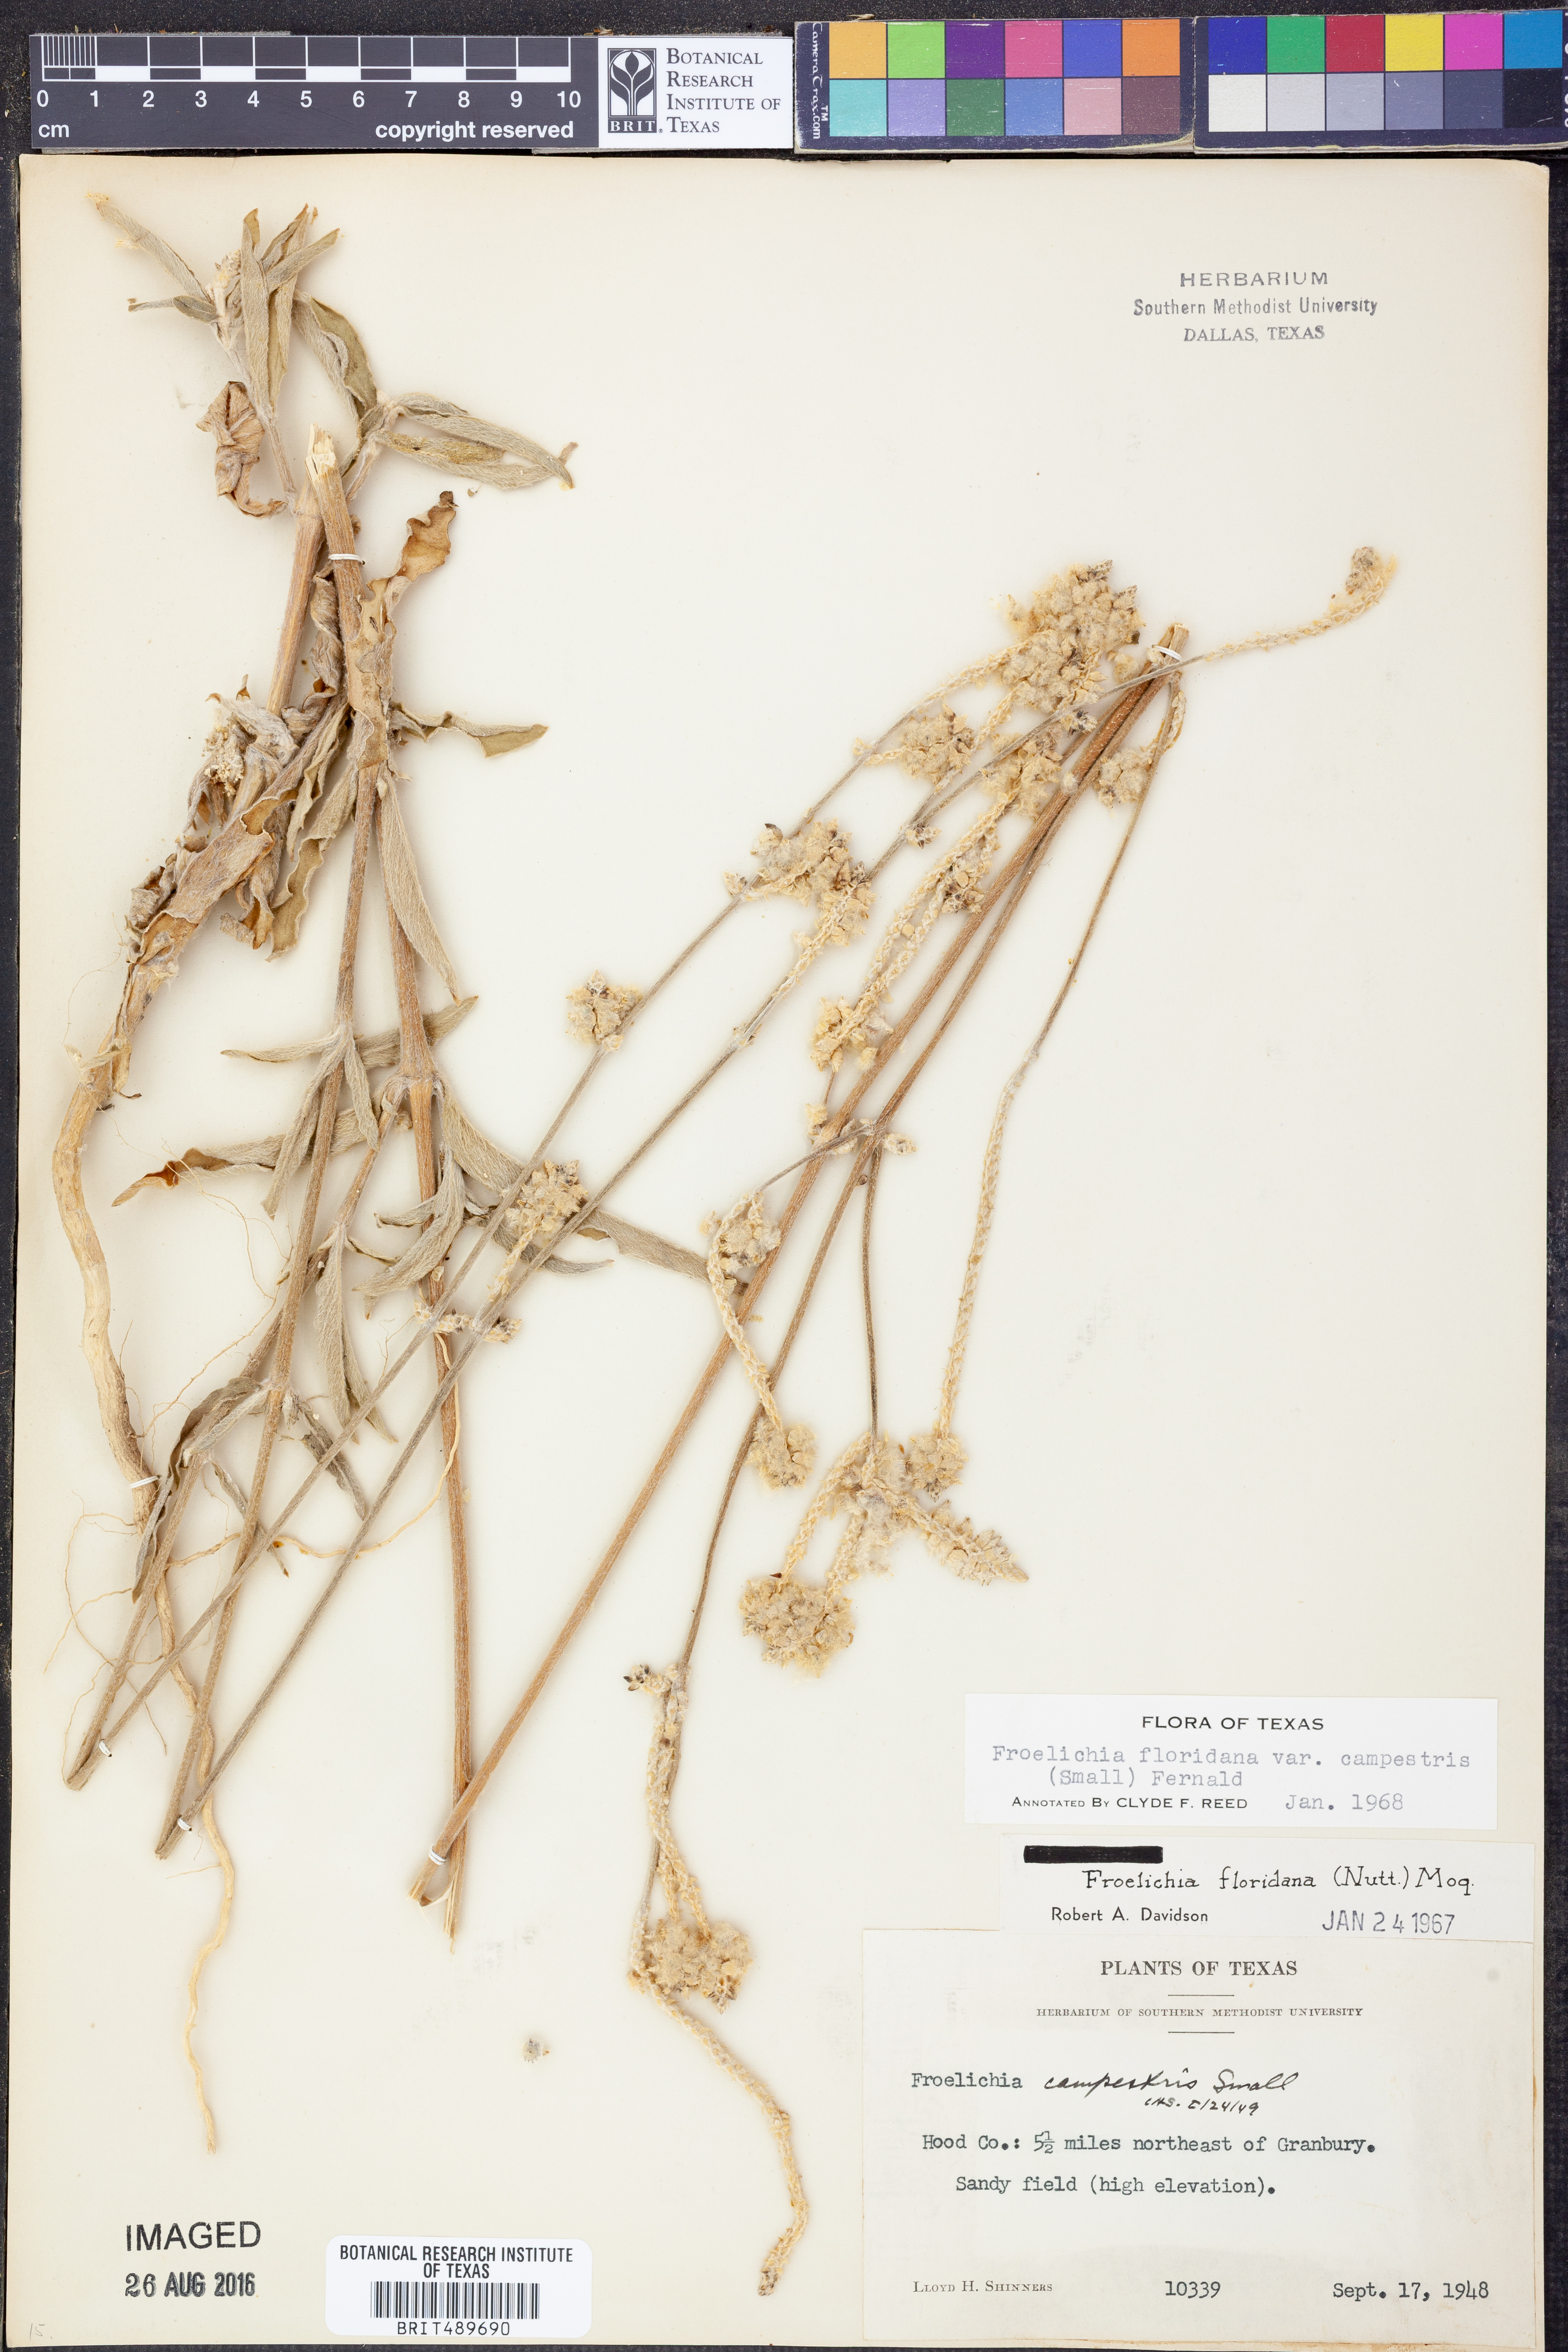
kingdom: Plantae
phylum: Tracheophyta
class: Magnoliopsida
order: Caryophyllales
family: Amaranthaceae
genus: Froelichia
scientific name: Froelichia floridana
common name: Florida snake-cotton
